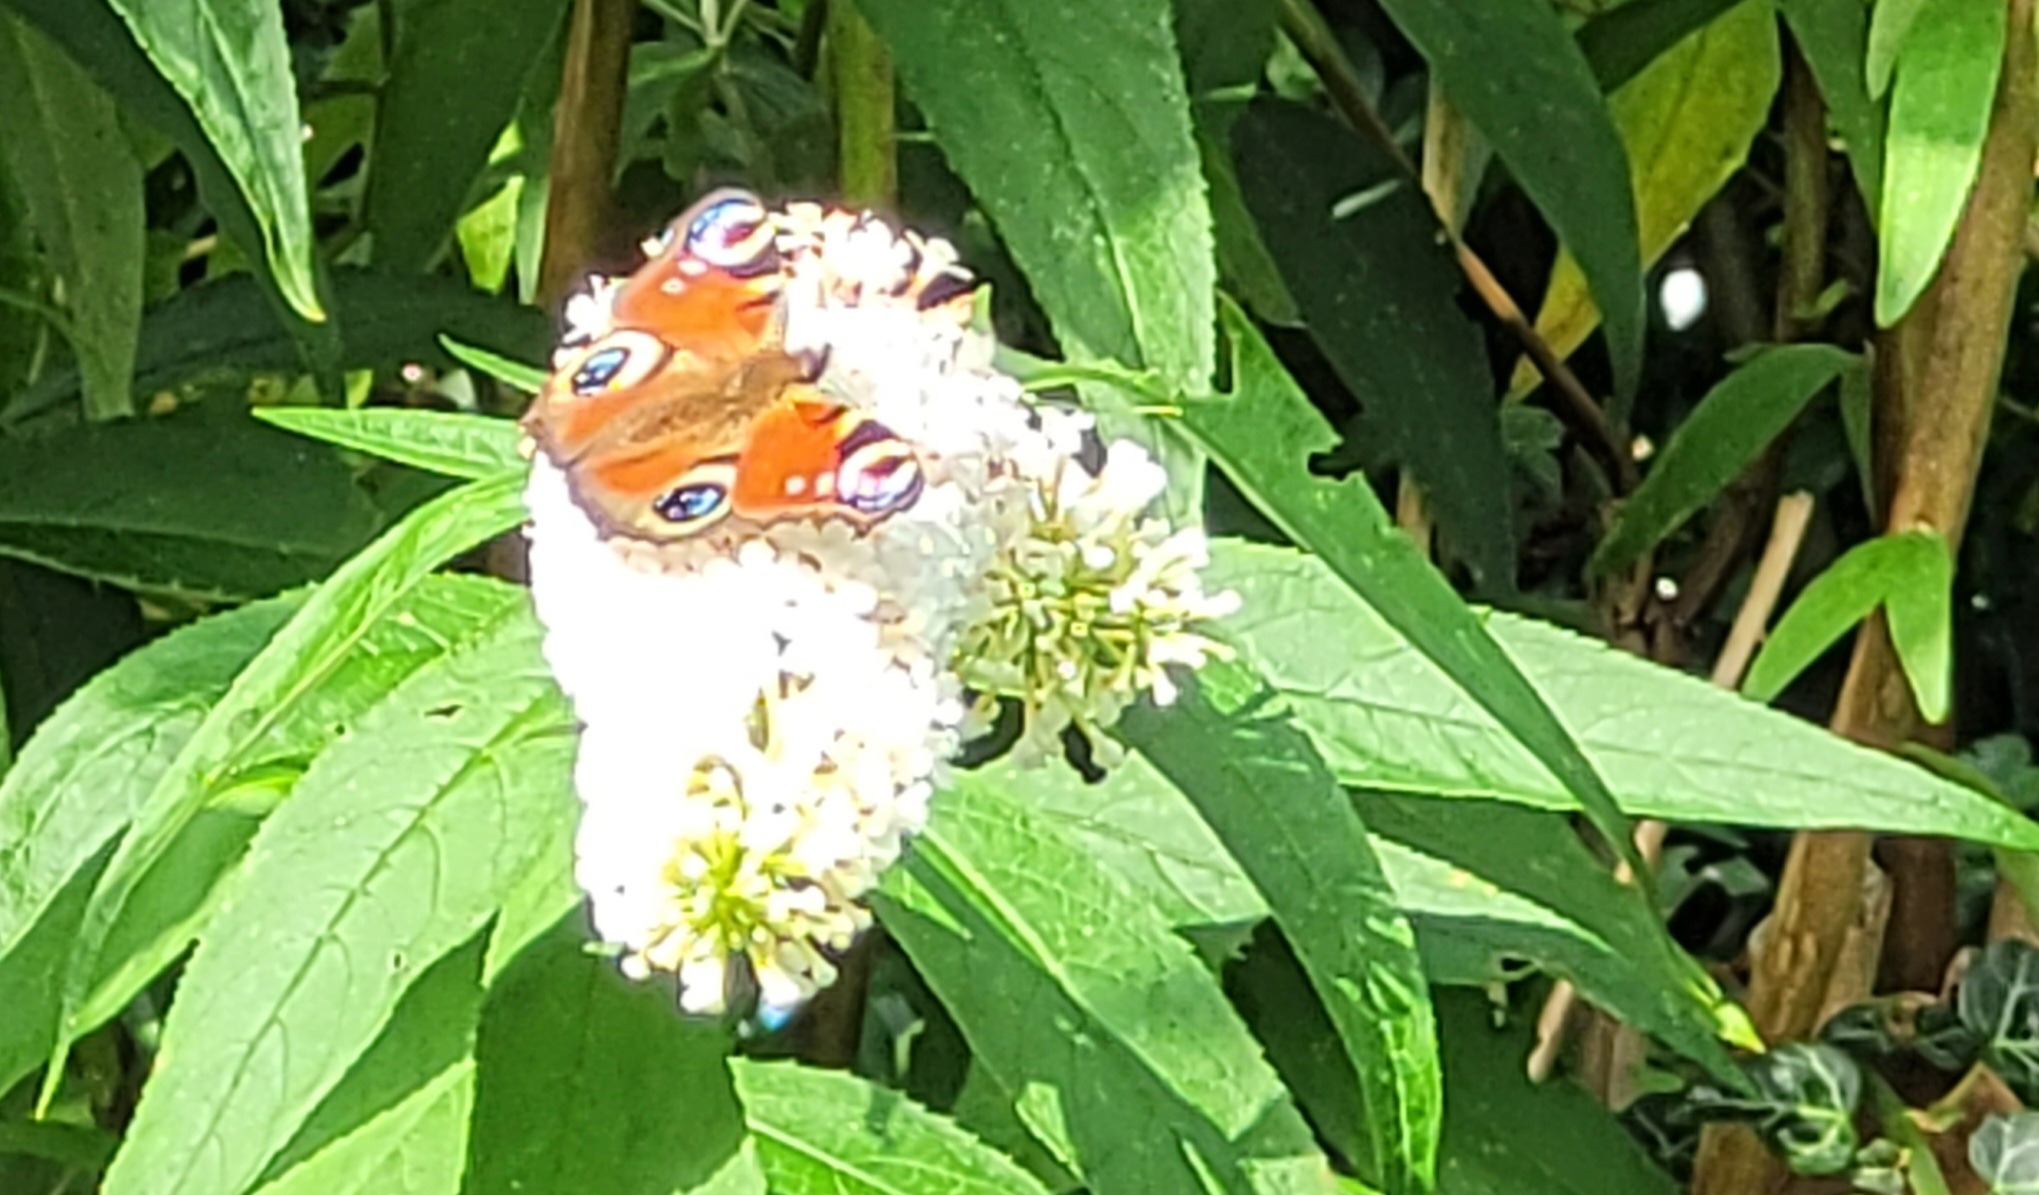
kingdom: Animalia
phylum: Arthropoda
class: Insecta
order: Lepidoptera
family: Nymphalidae
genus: Aglais
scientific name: Aglais io
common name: Dagpåfugleøje
